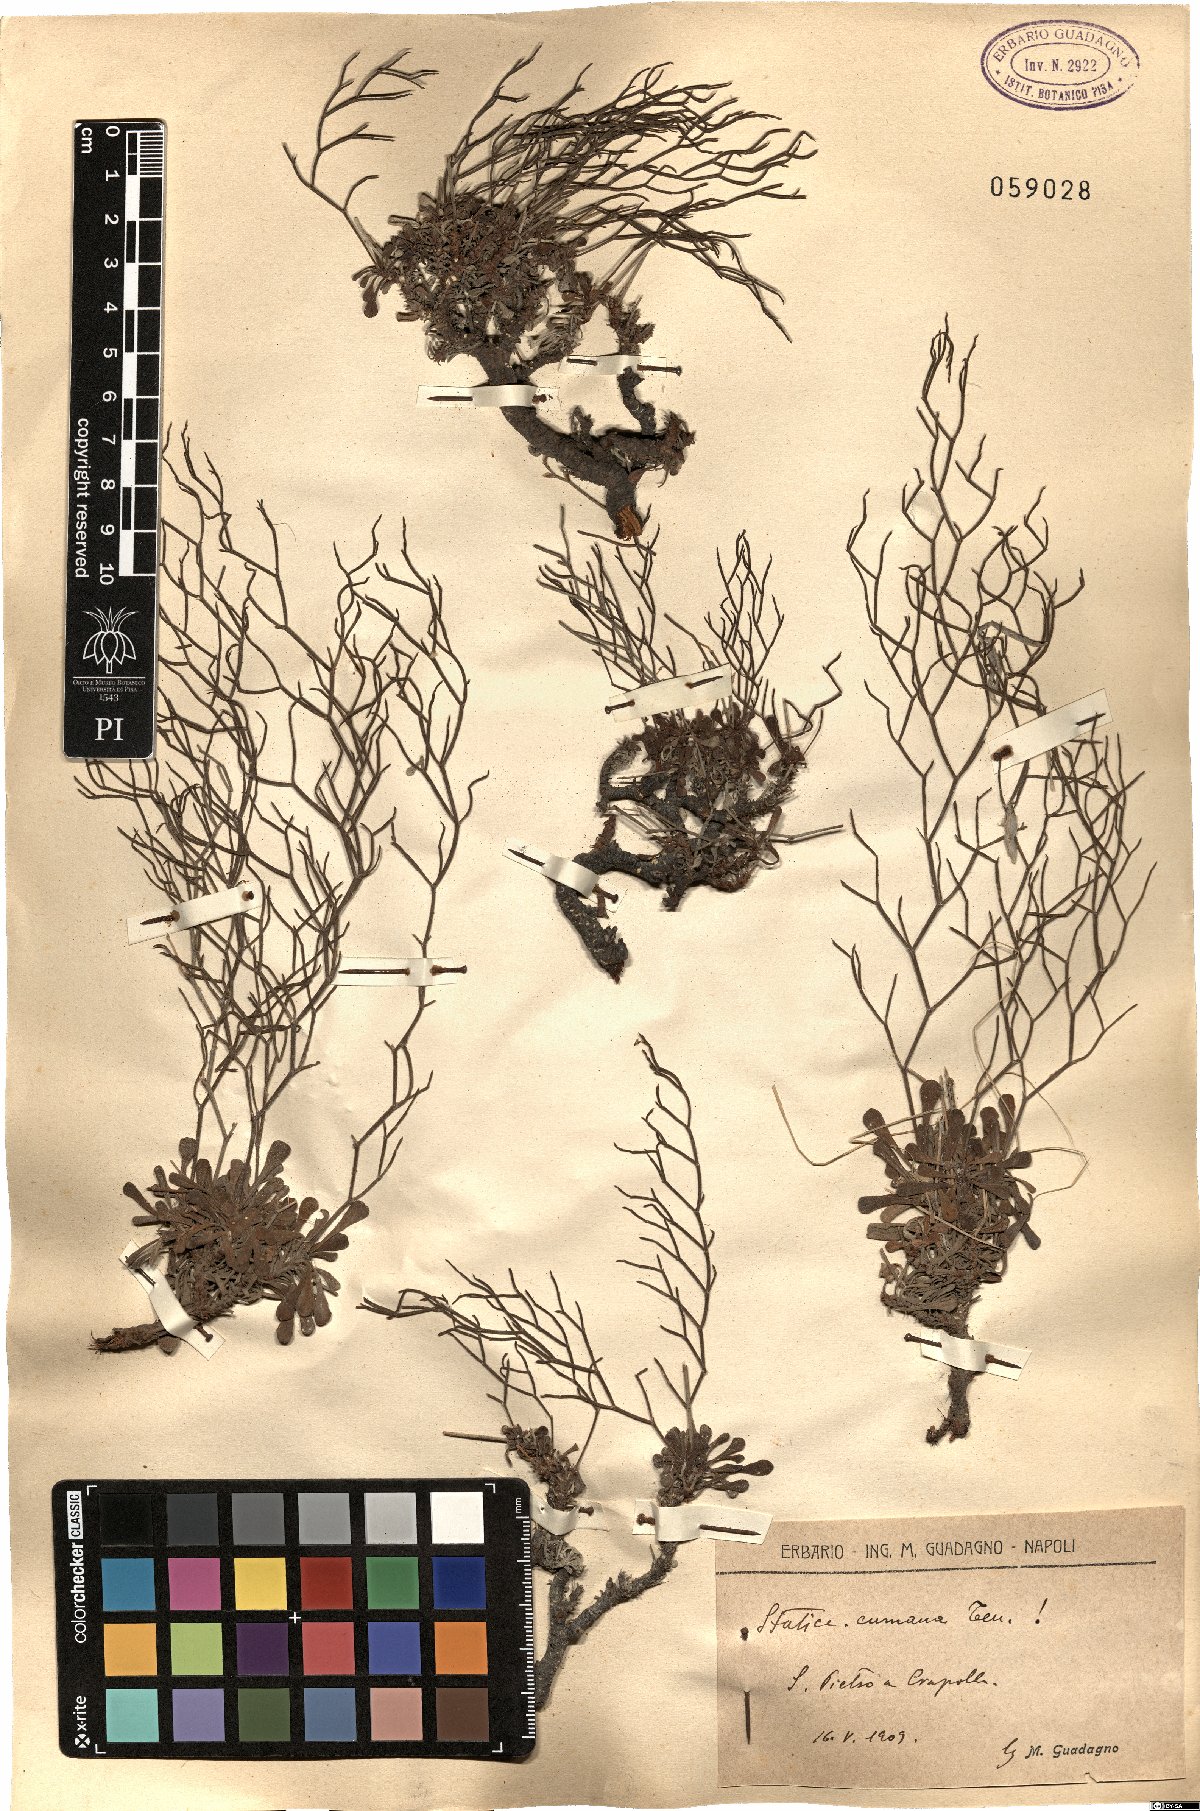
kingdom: Plantae
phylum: Tracheophyta
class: Magnoliopsida
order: Caryophyllales
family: Plumbaginaceae
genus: Limonium
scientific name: Limonium cumanum
